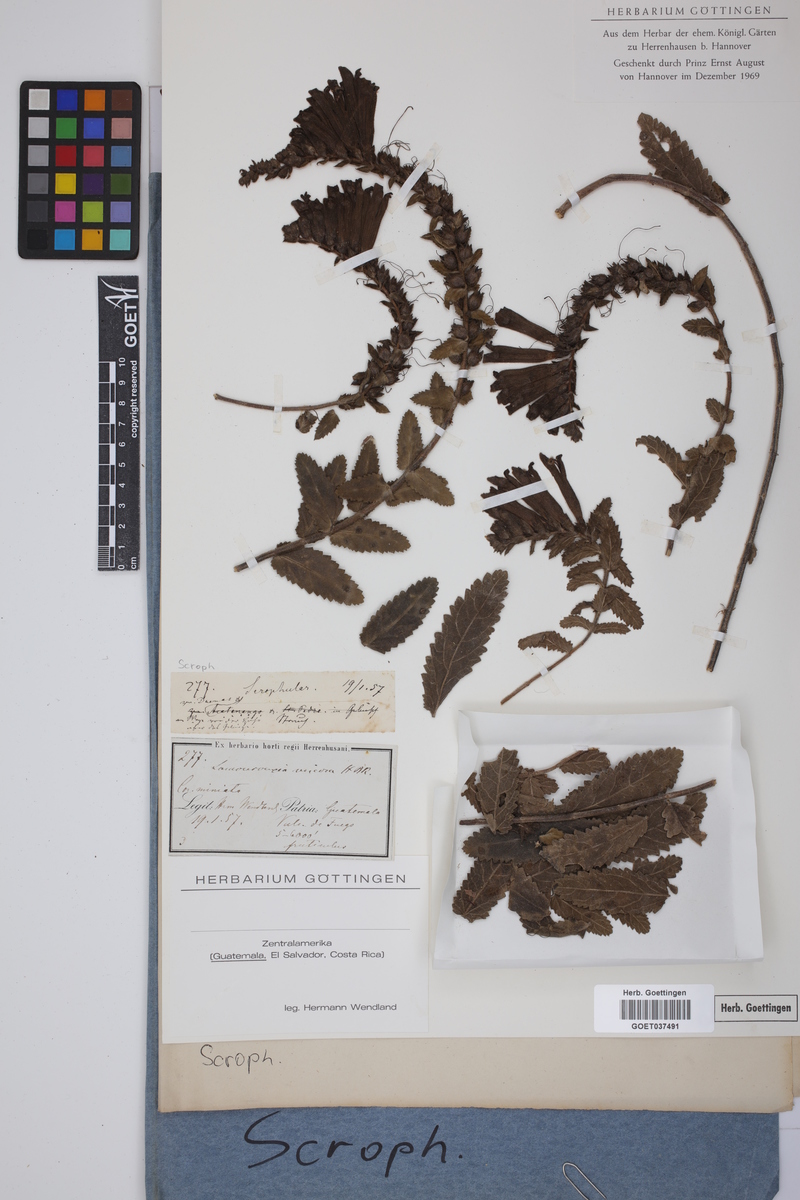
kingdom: Plantae
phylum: Tracheophyta
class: Magnoliopsida
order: Lamiales
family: Orobanchaceae
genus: Lamourouxia
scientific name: Lamourouxia viscosa
